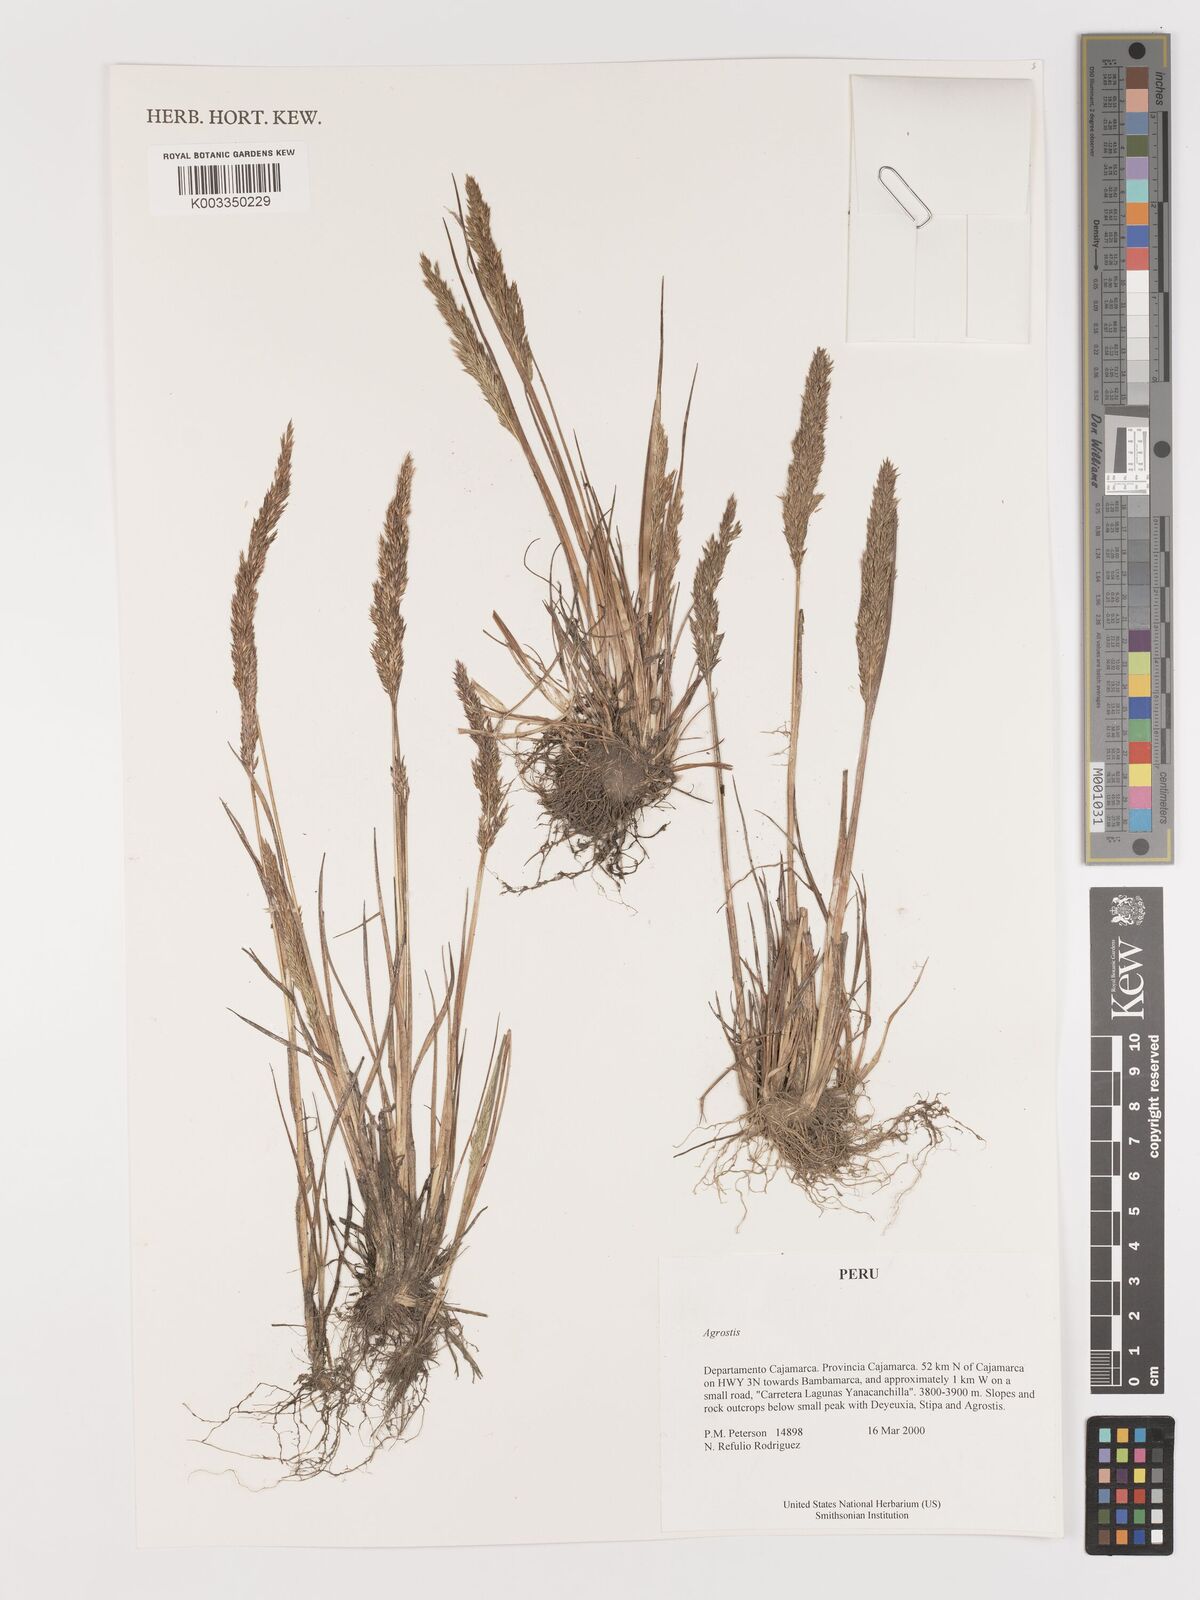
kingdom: Plantae
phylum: Tracheophyta
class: Liliopsida
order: Poales
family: Poaceae
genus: Agrostis
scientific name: Agrostis
